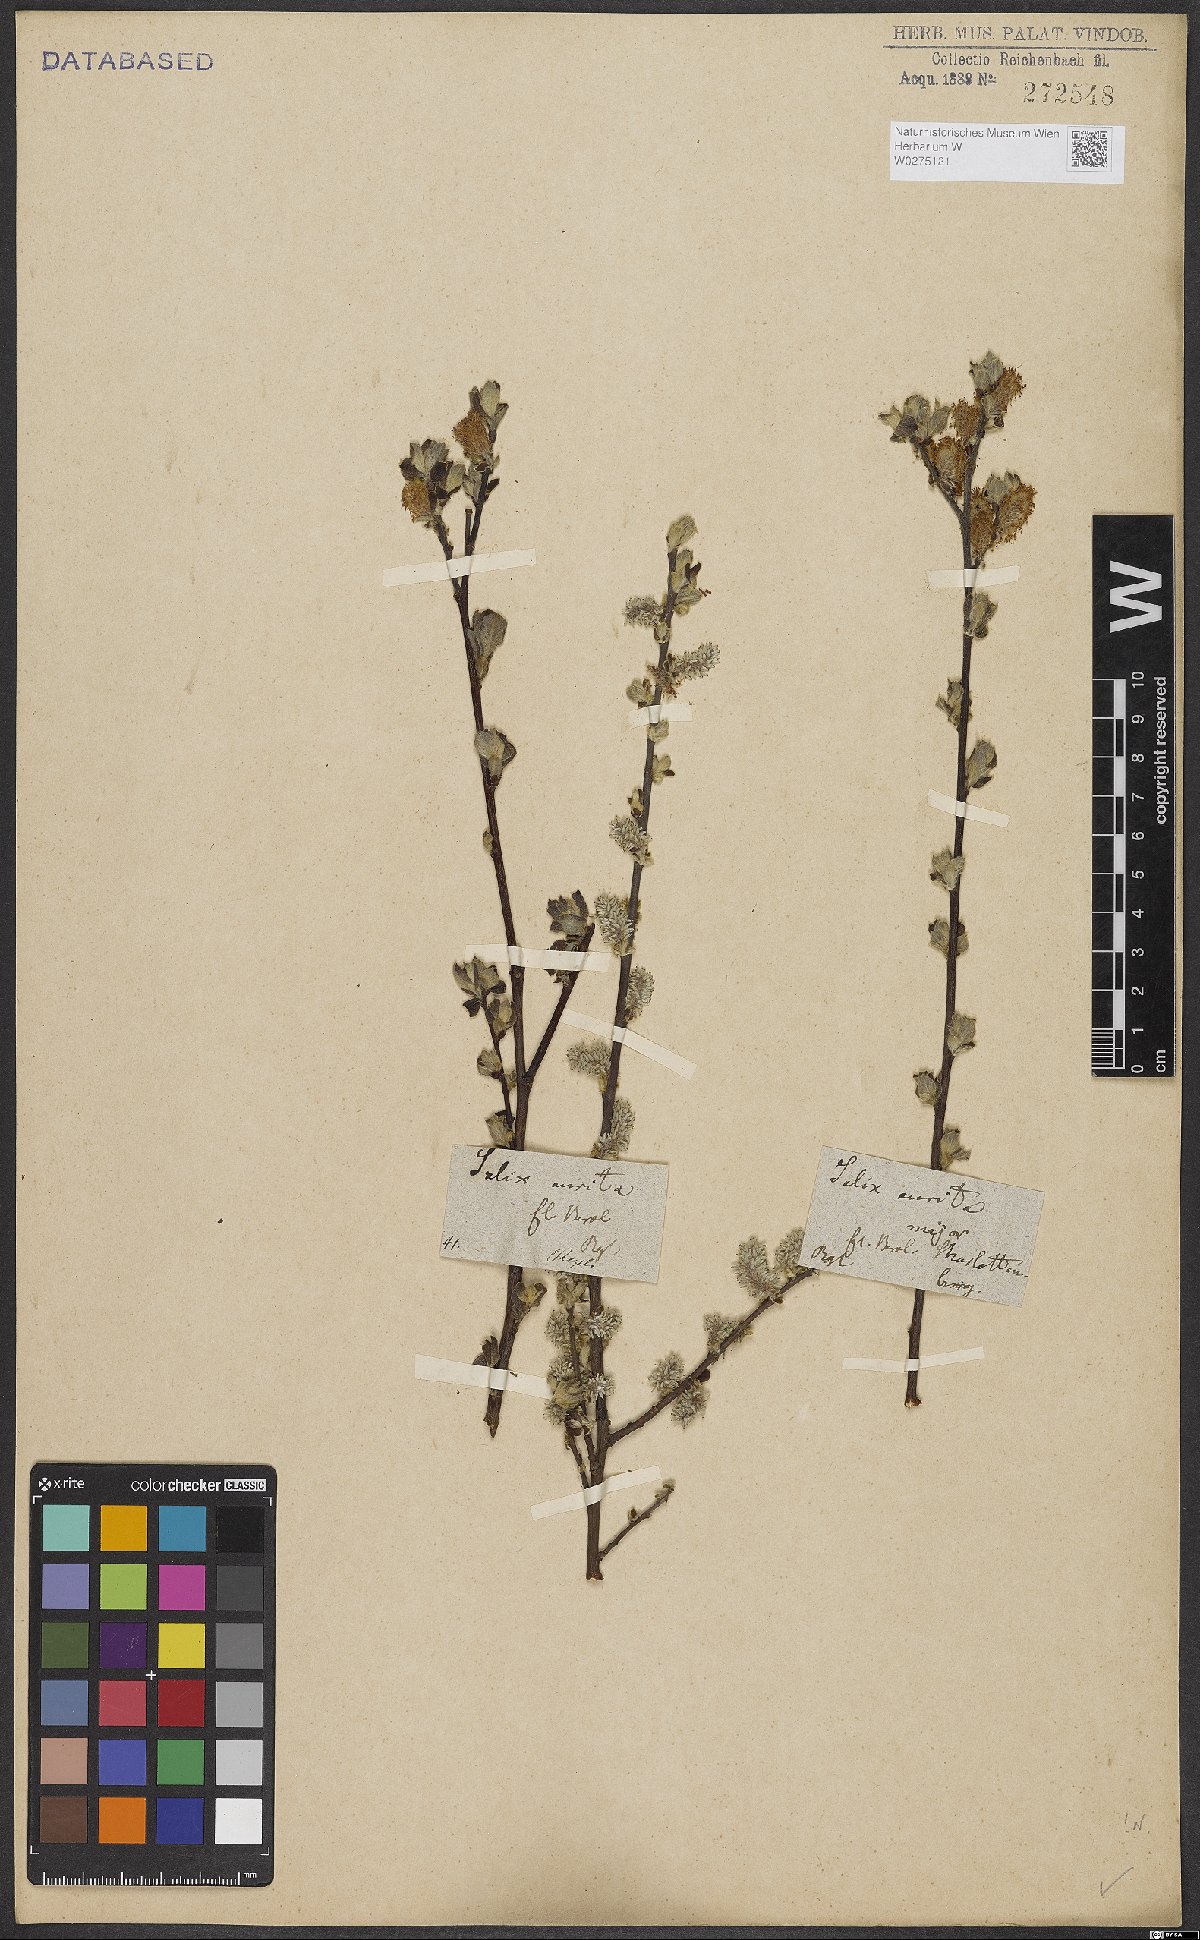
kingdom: Plantae
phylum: Tracheophyta
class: Magnoliopsida
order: Malpighiales
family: Salicaceae
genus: Salix
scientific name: Salix aurita
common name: Eared willow
